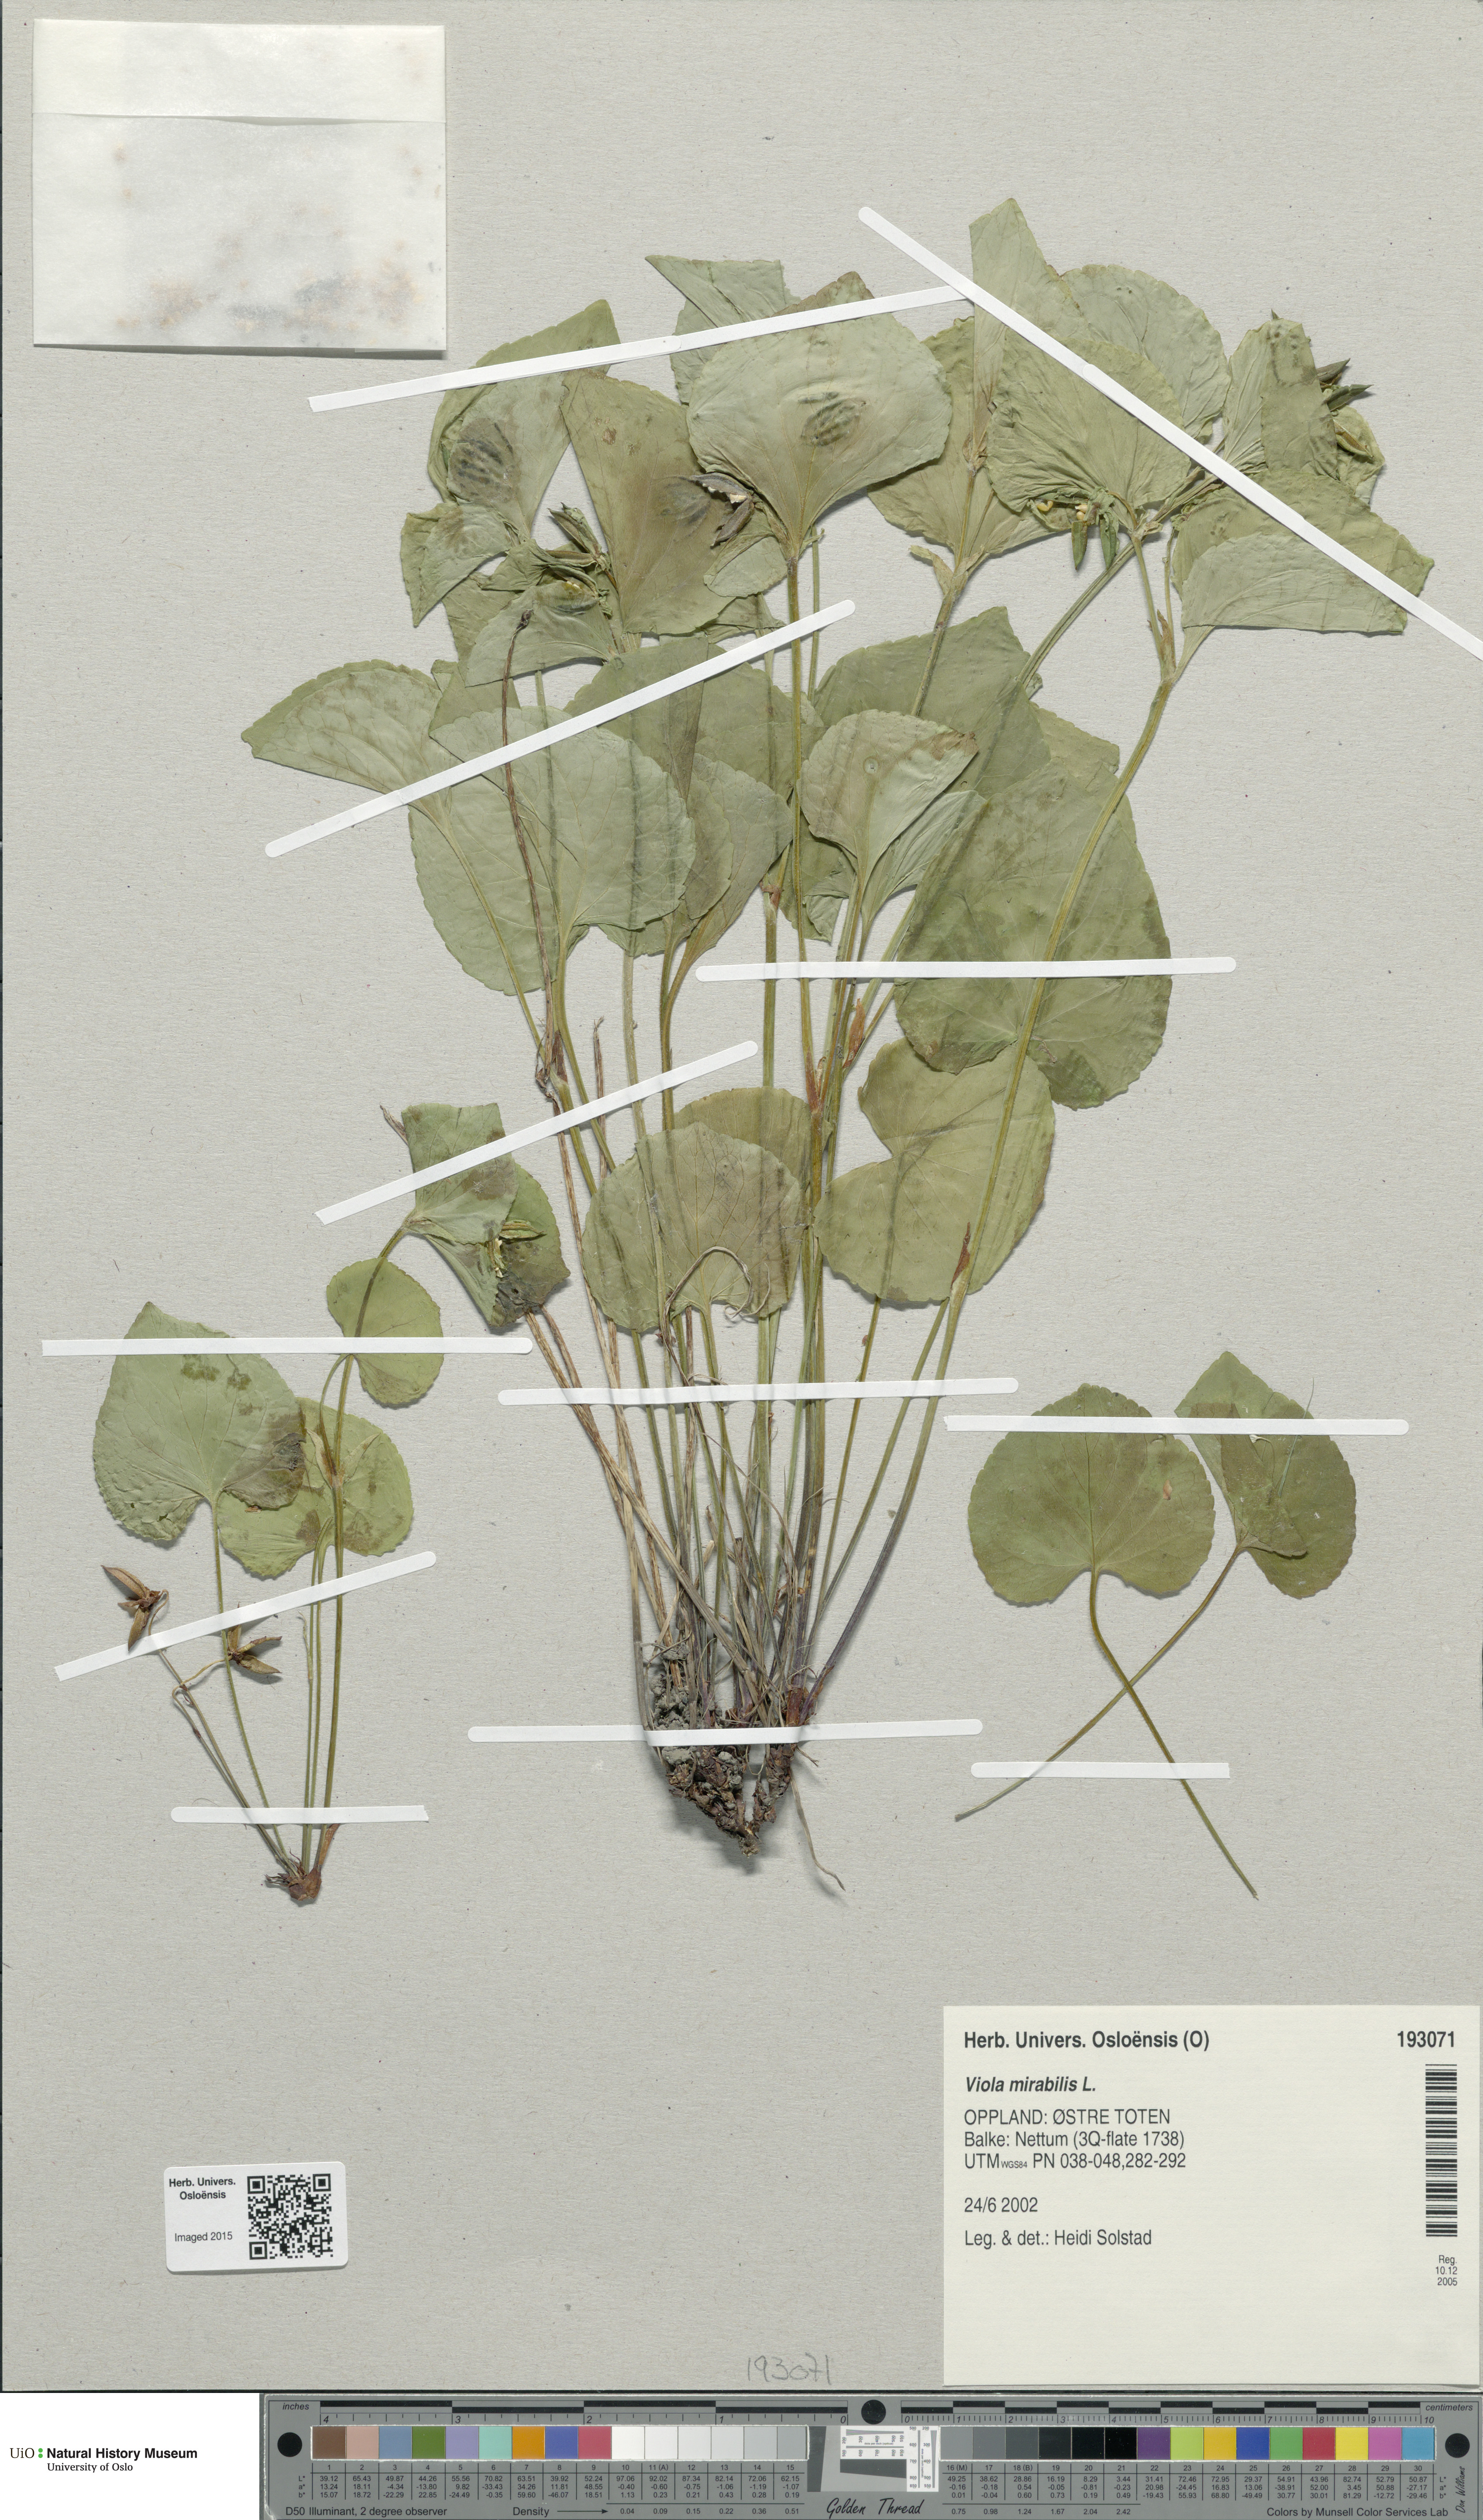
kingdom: Plantae
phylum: Tracheophyta
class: Magnoliopsida
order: Malpighiales
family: Violaceae
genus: Viola
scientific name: Viola mirabilis
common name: Wonder violet
